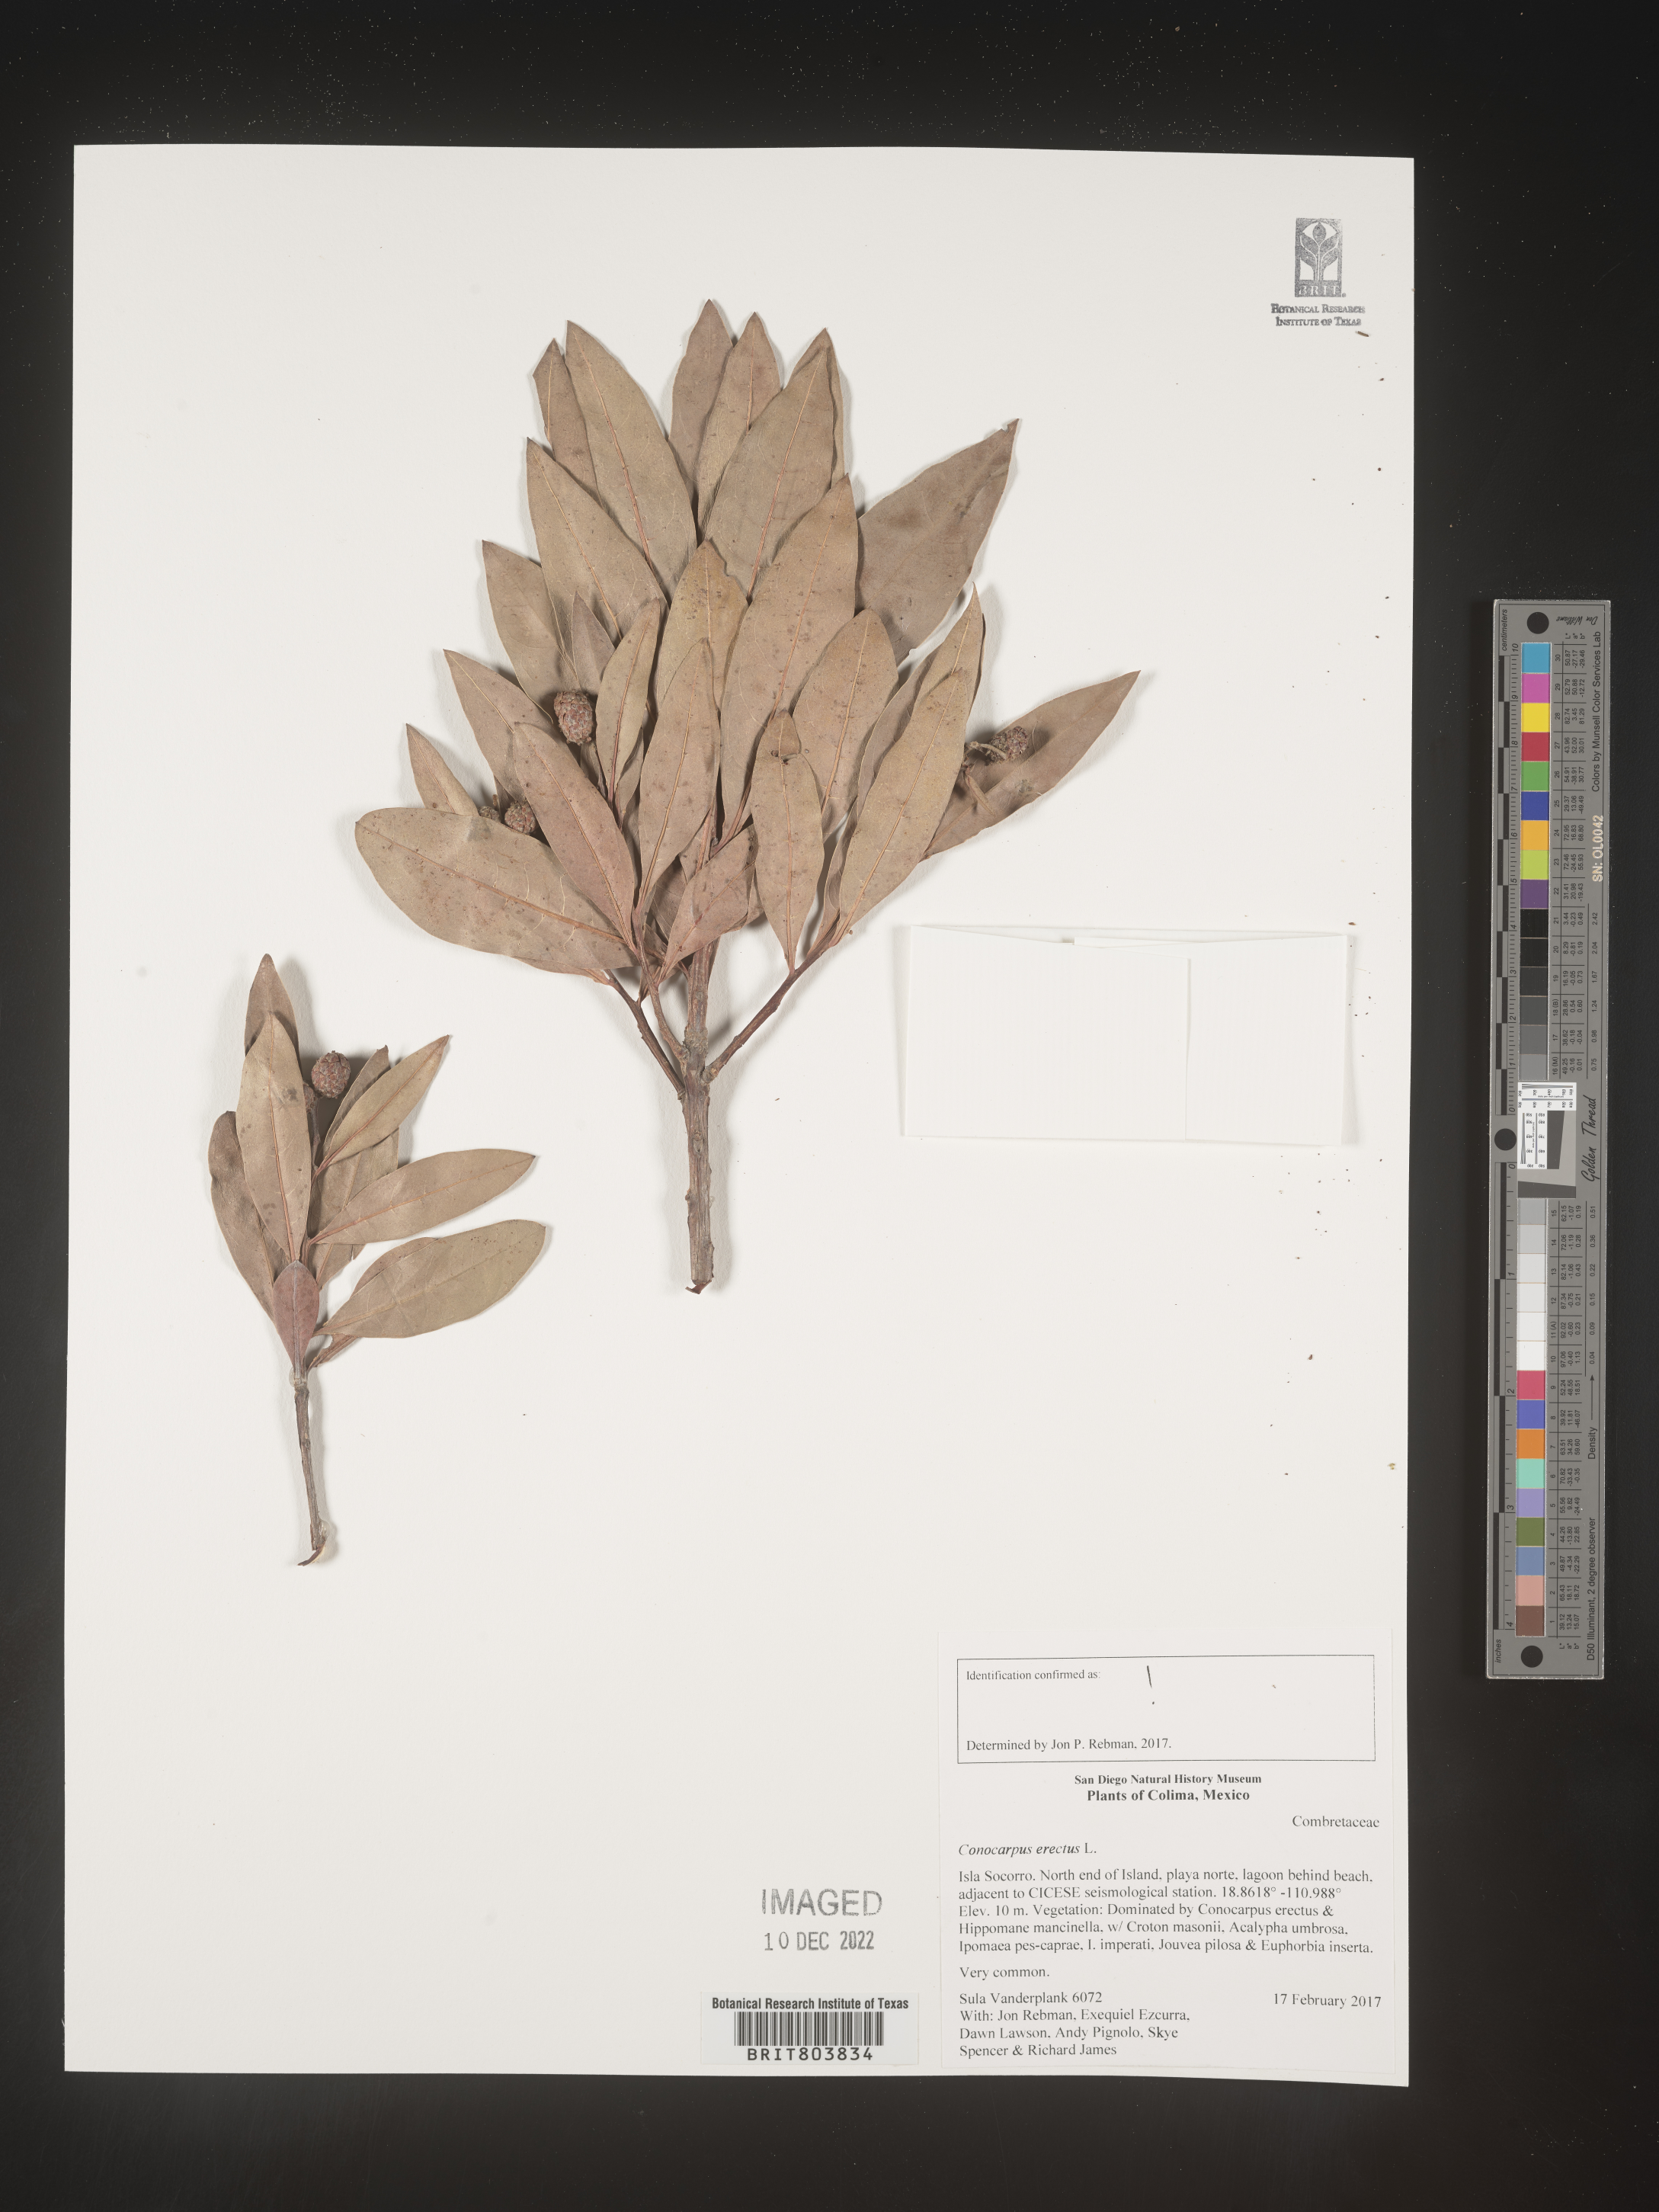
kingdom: Plantae
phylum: Tracheophyta
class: Magnoliopsida
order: Myrtales
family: Combretaceae
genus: Conocarpus
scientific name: Conocarpus
